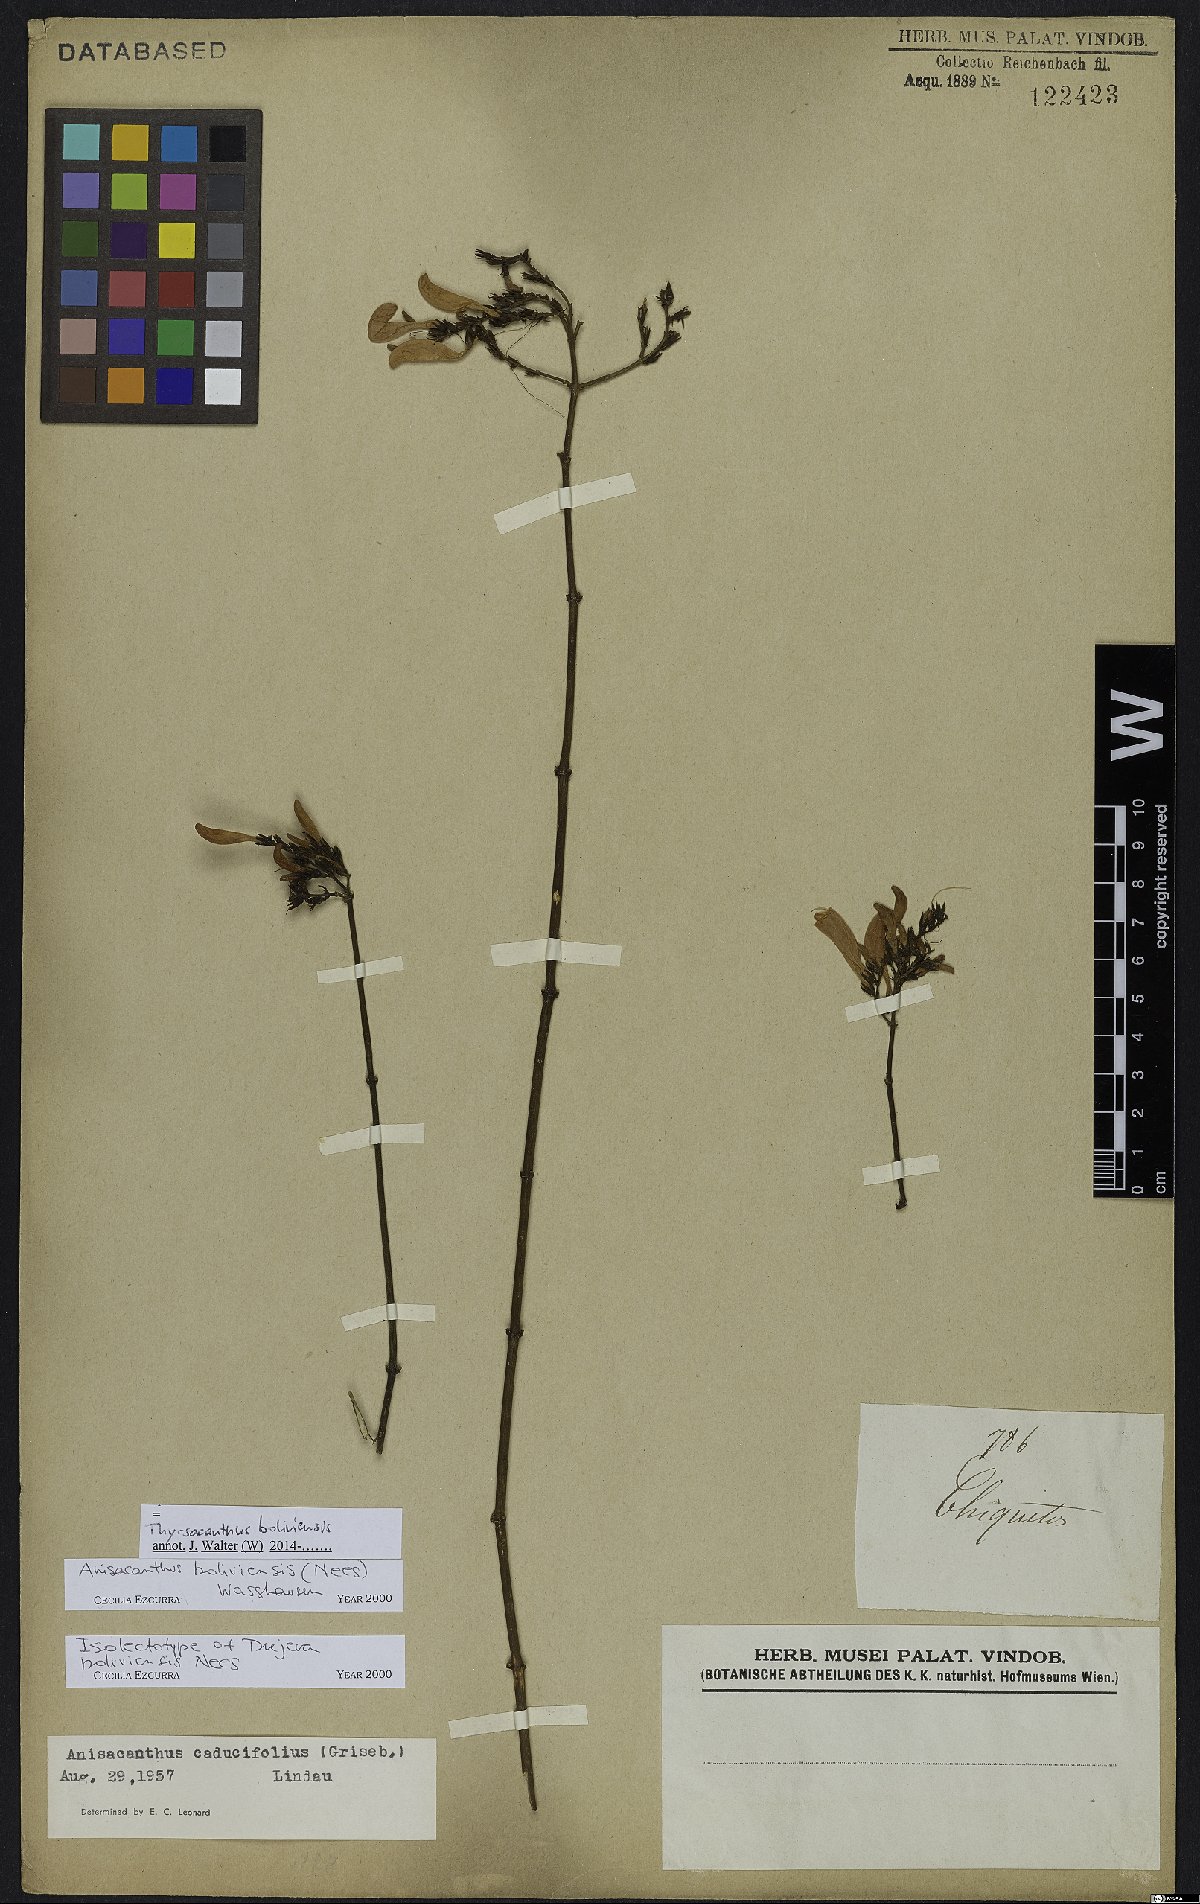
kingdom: Plantae
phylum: Tracheophyta
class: Magnoliopsida
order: Lamiales
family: Acanthaceae
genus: Thyrsacanthus
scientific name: Thyrsacanthus boliviensis
